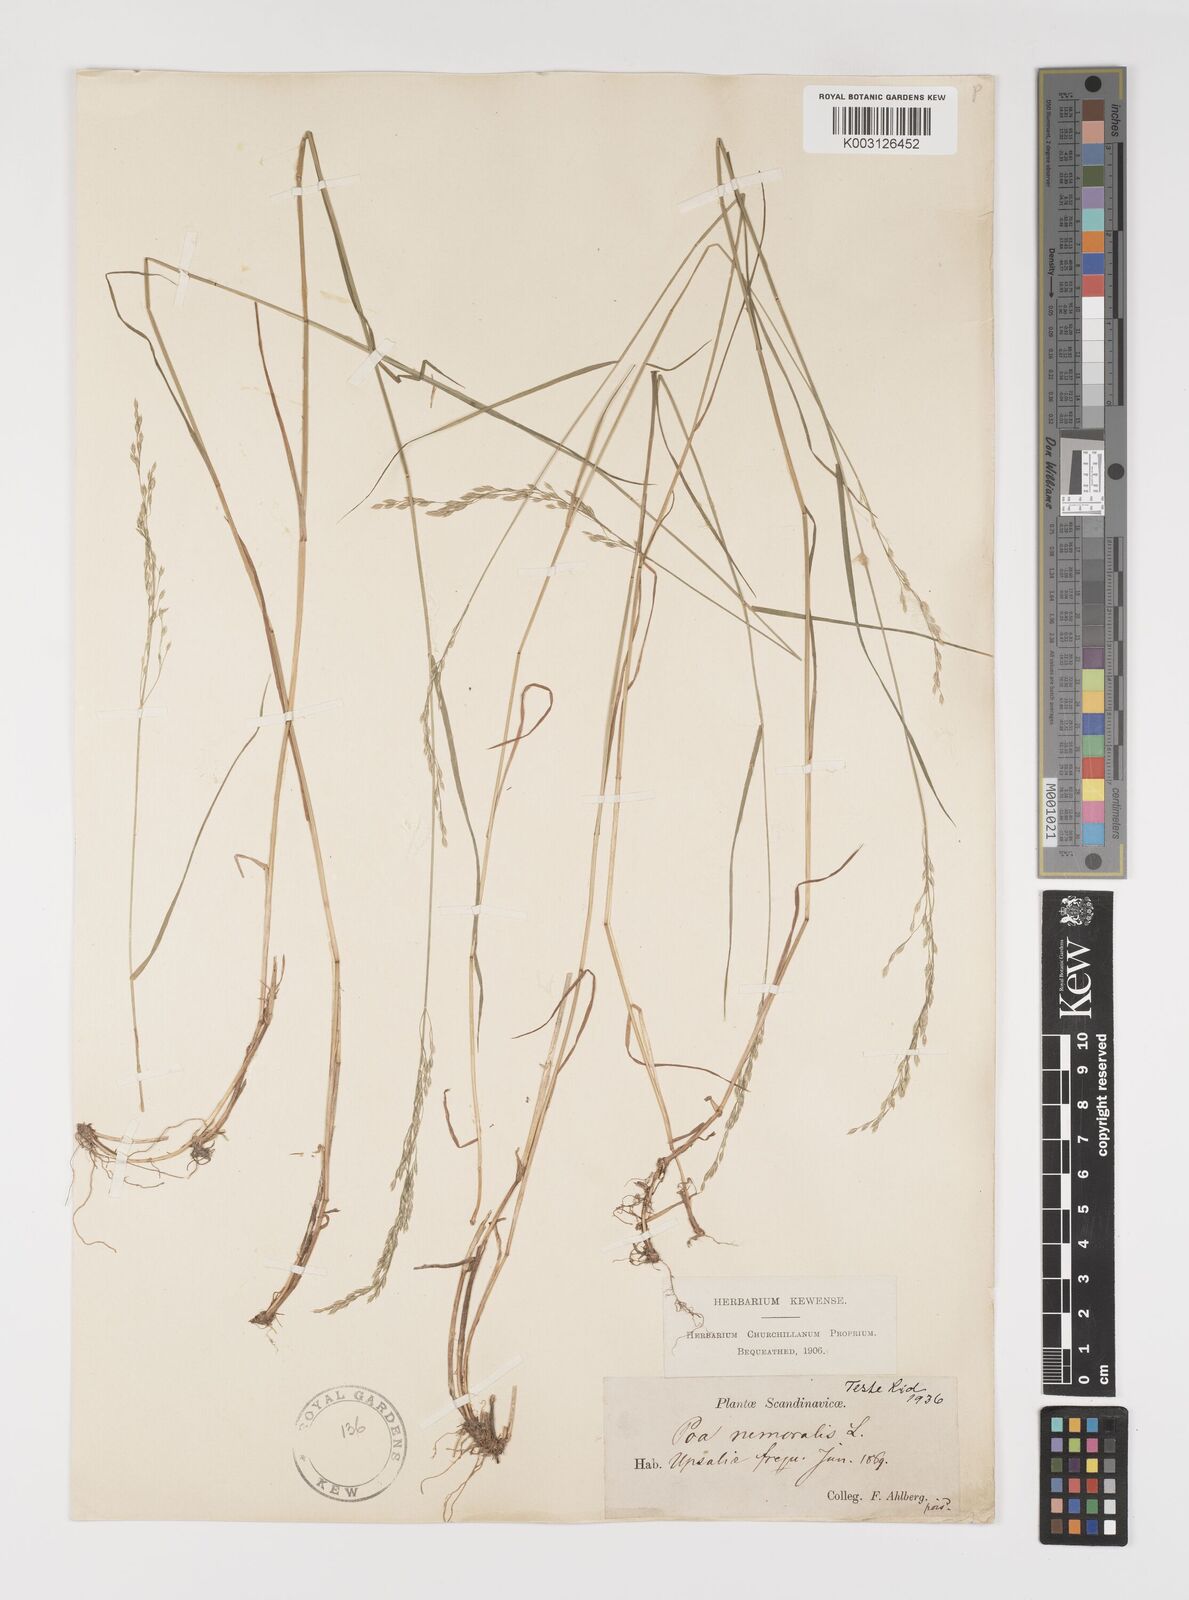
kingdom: Plantae
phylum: Tracheophyta
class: Liliopsida
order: Poales
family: Poaceae
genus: Poa
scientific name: Poa nemoralis
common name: Wood bluegrass
